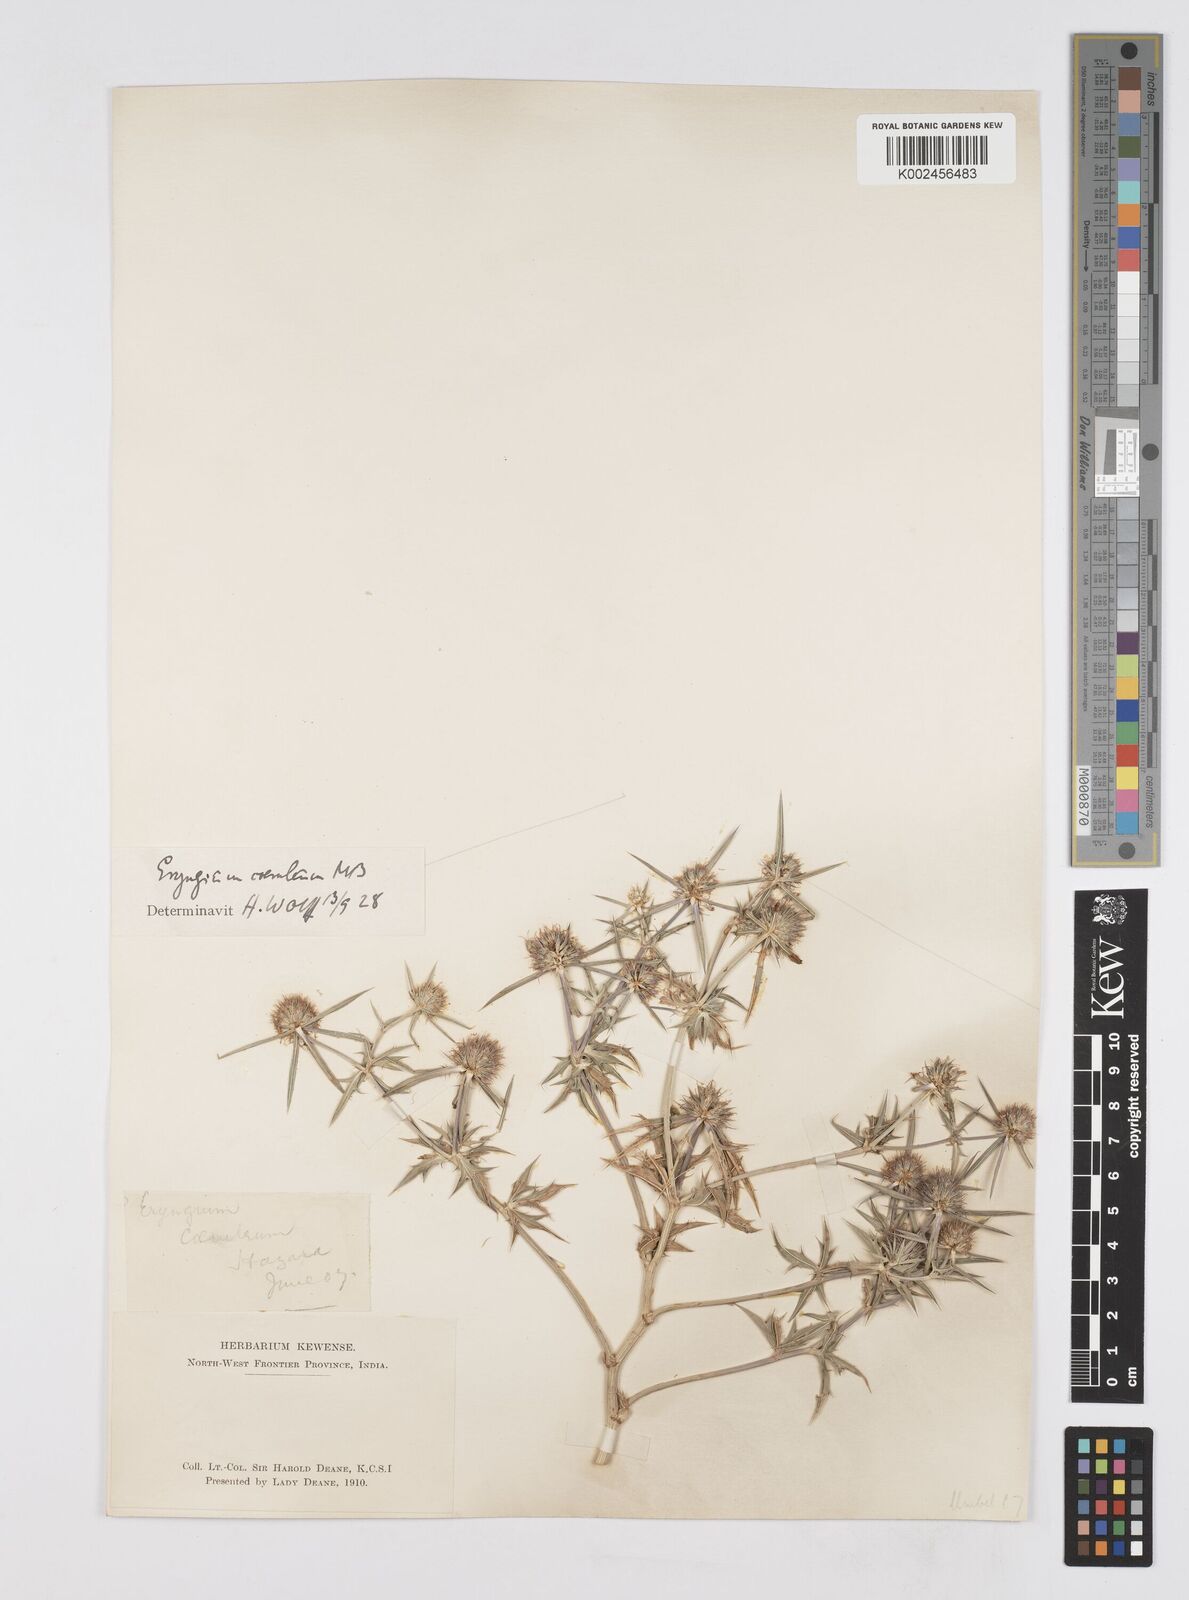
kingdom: Plantae
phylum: Tracheophyta
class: Magnoliopsida
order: Apiales
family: Apiaceae
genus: Eryngium
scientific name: Eryngium caeruleum
